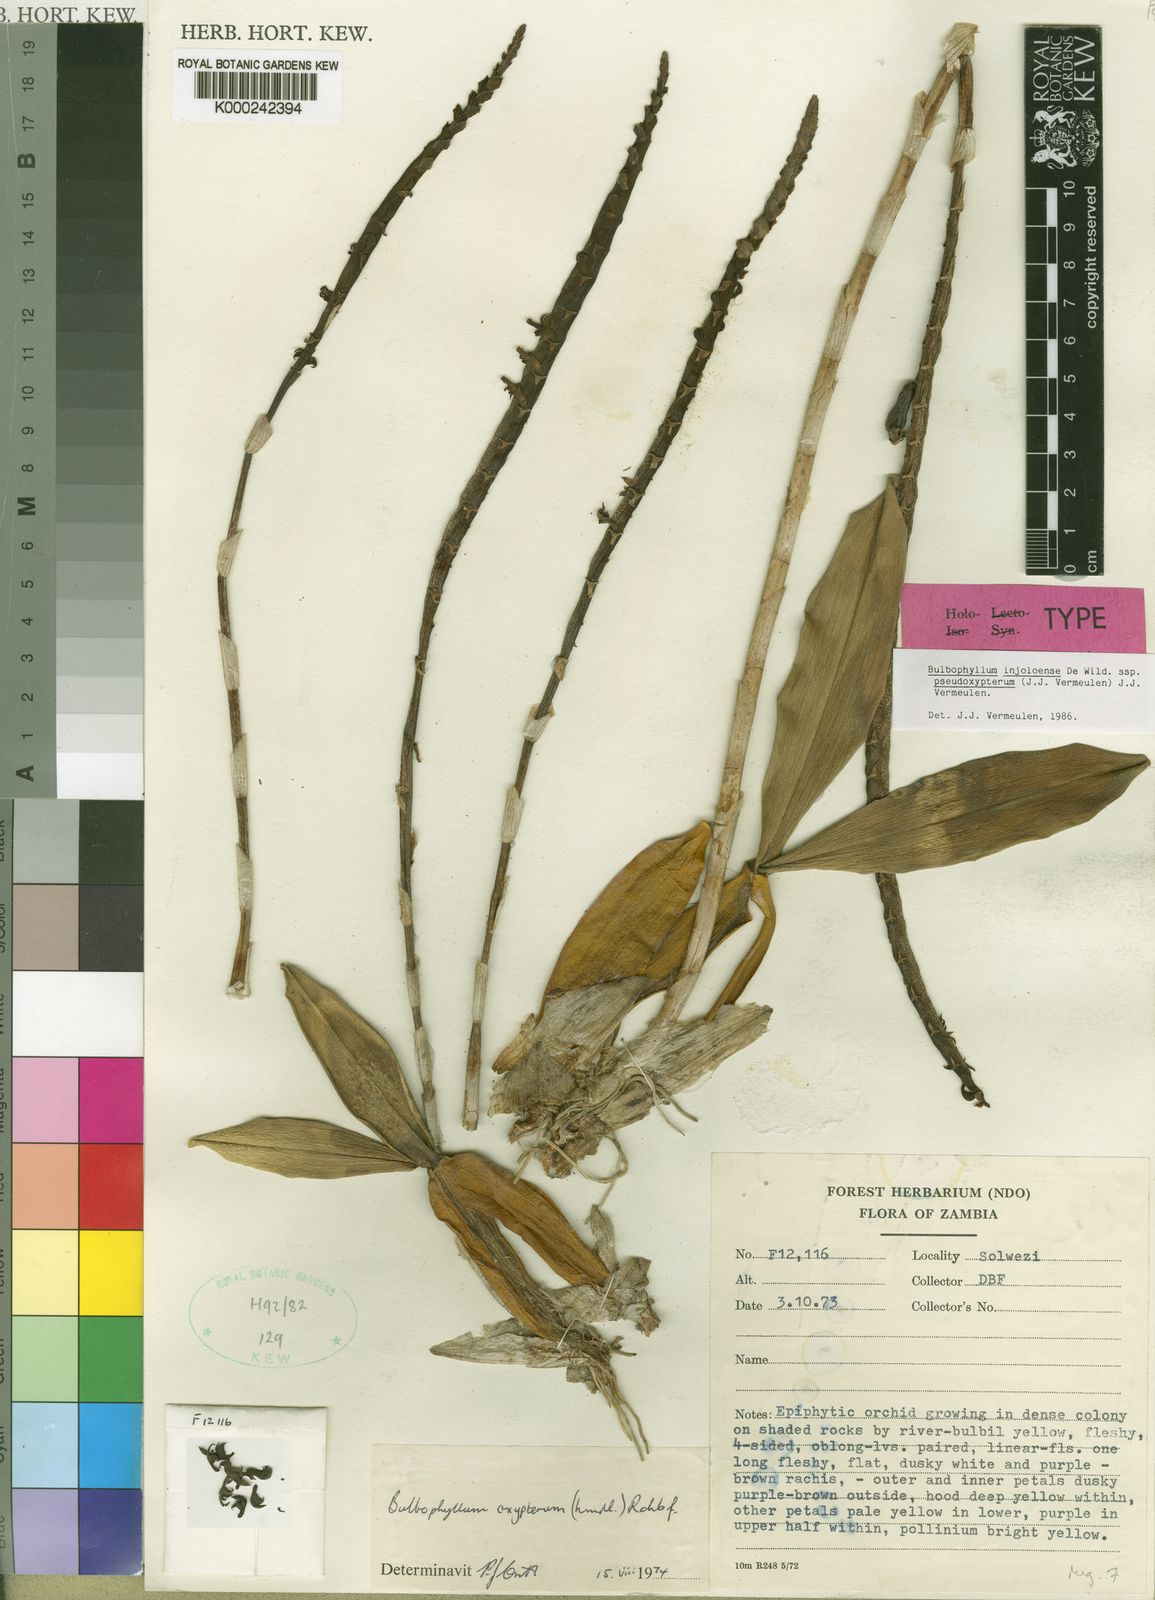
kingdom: Plantae
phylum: Tracheophyta
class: Liliopsida
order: Asparagales
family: Orchidaceae
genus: Bulbophyllum
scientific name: Bulbophyllum injoloense
